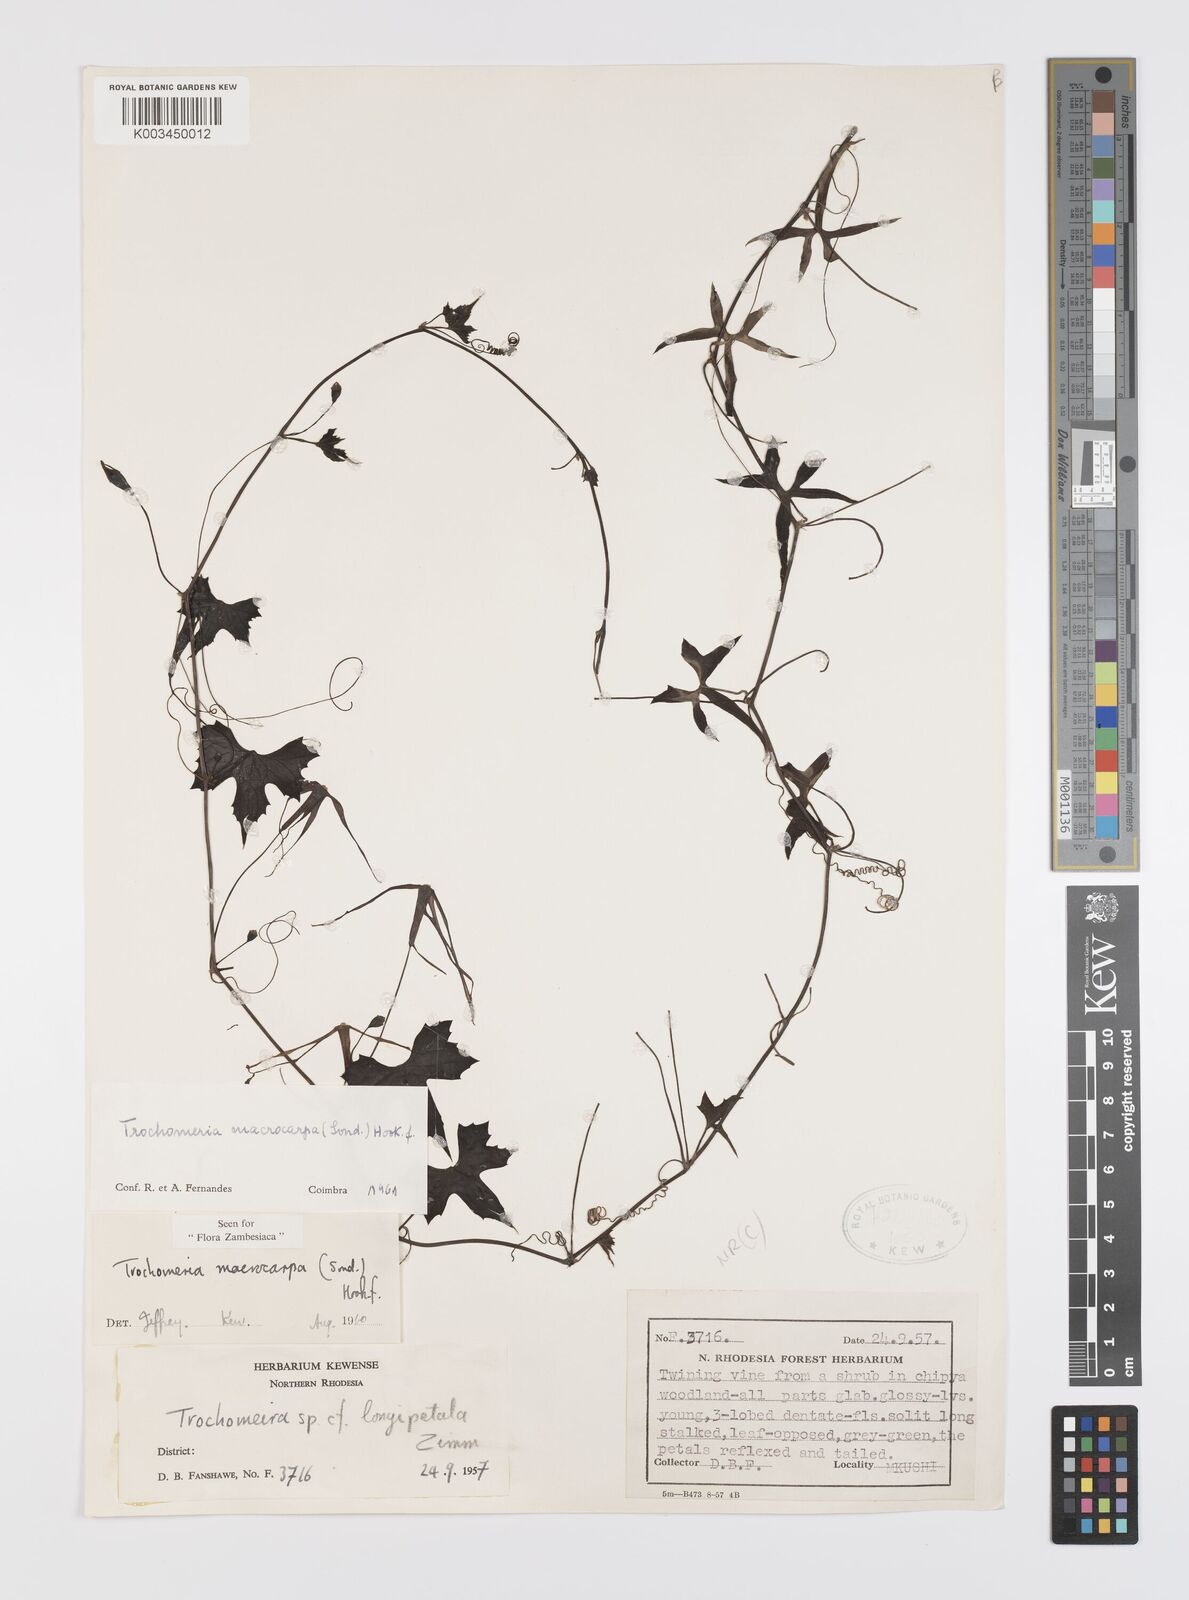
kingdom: Plantae
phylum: Tracheophyta
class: Magnoliopsida
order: Cucurbitales
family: Cucurbitaceae
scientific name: Cucurbitaceae
